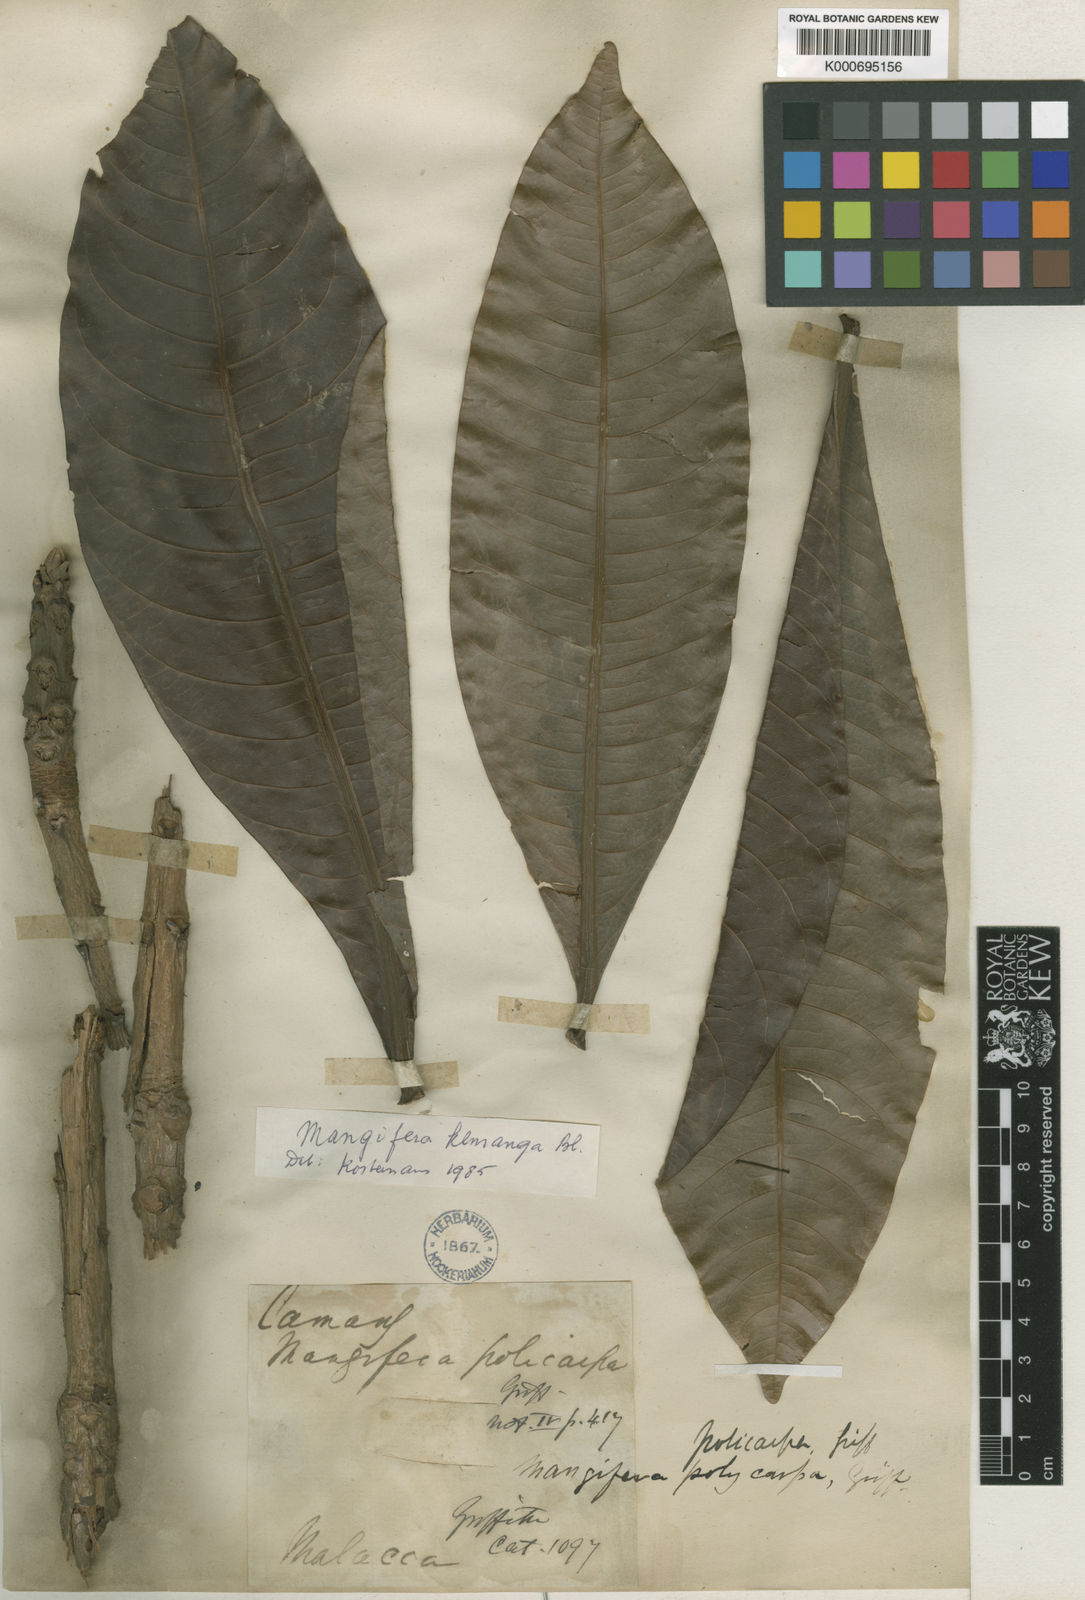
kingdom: Plantae
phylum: Tracheophyta
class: Magnoliopsida
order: Sapindales
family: Anacardiaceae
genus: Mangifera
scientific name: Mangifera caesia
